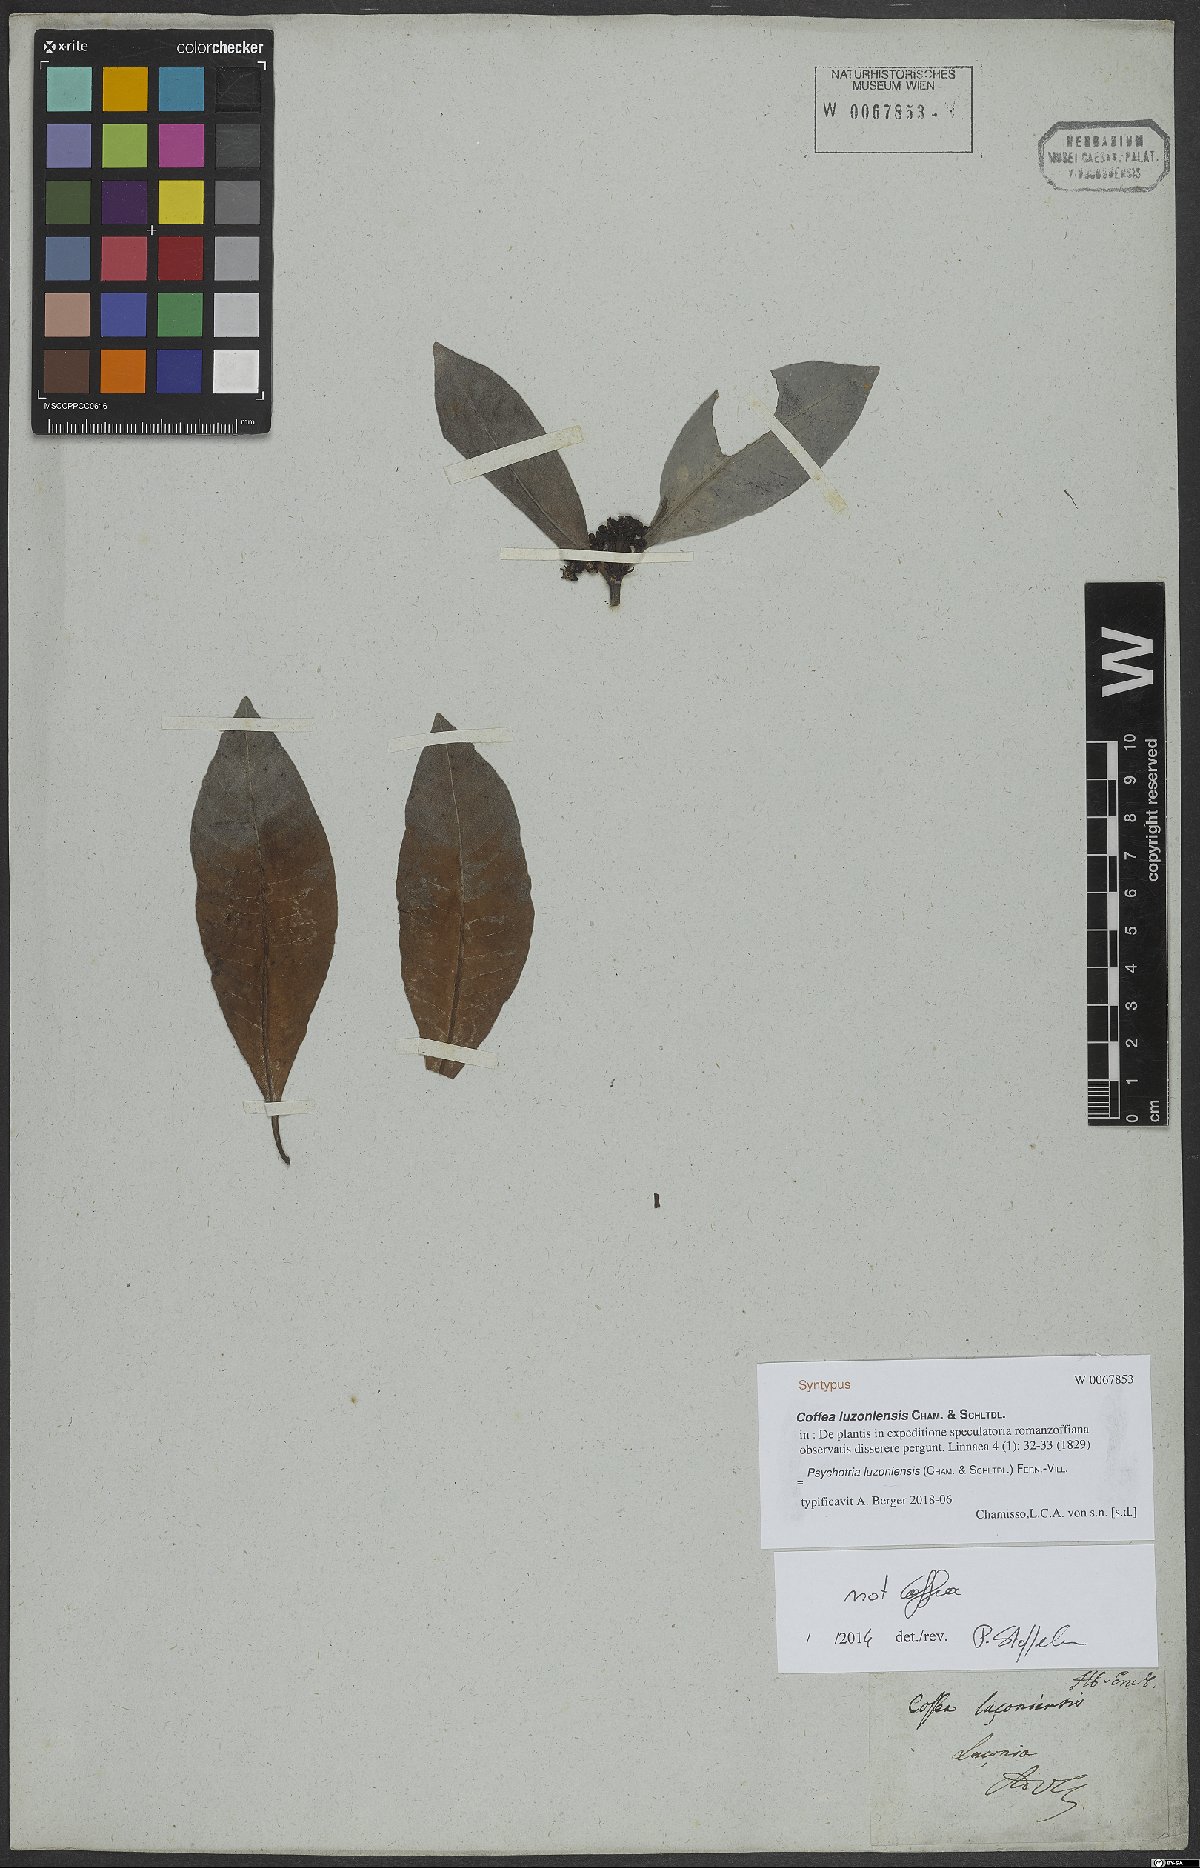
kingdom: Plantae
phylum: Tracheophyta
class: Magnoliopsida
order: Gentianales
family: Rubiaceae
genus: Psychotria
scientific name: Psychotria luzoniensis
